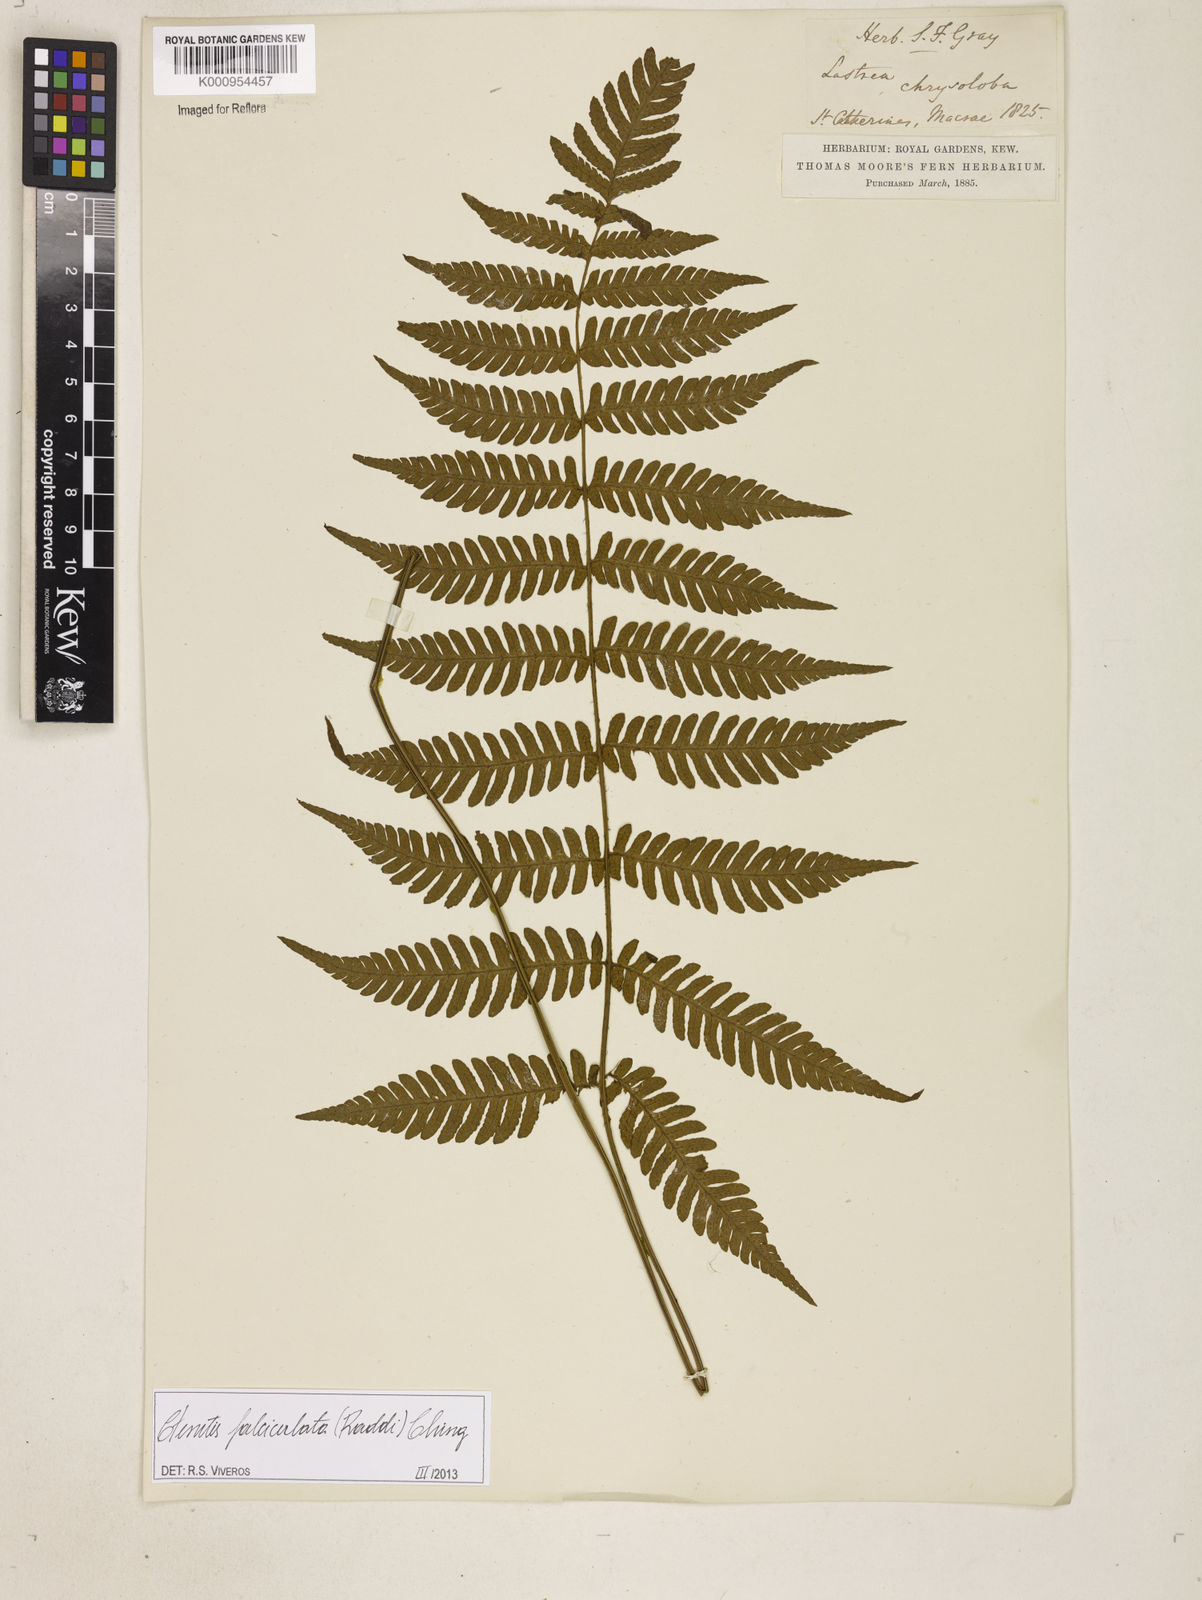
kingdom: Plantae
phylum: Tracheophyta
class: Polypodiopsida
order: Polypodiales
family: Dryopteridaceae
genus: Ctenitis
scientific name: Ctenitis falciculata
